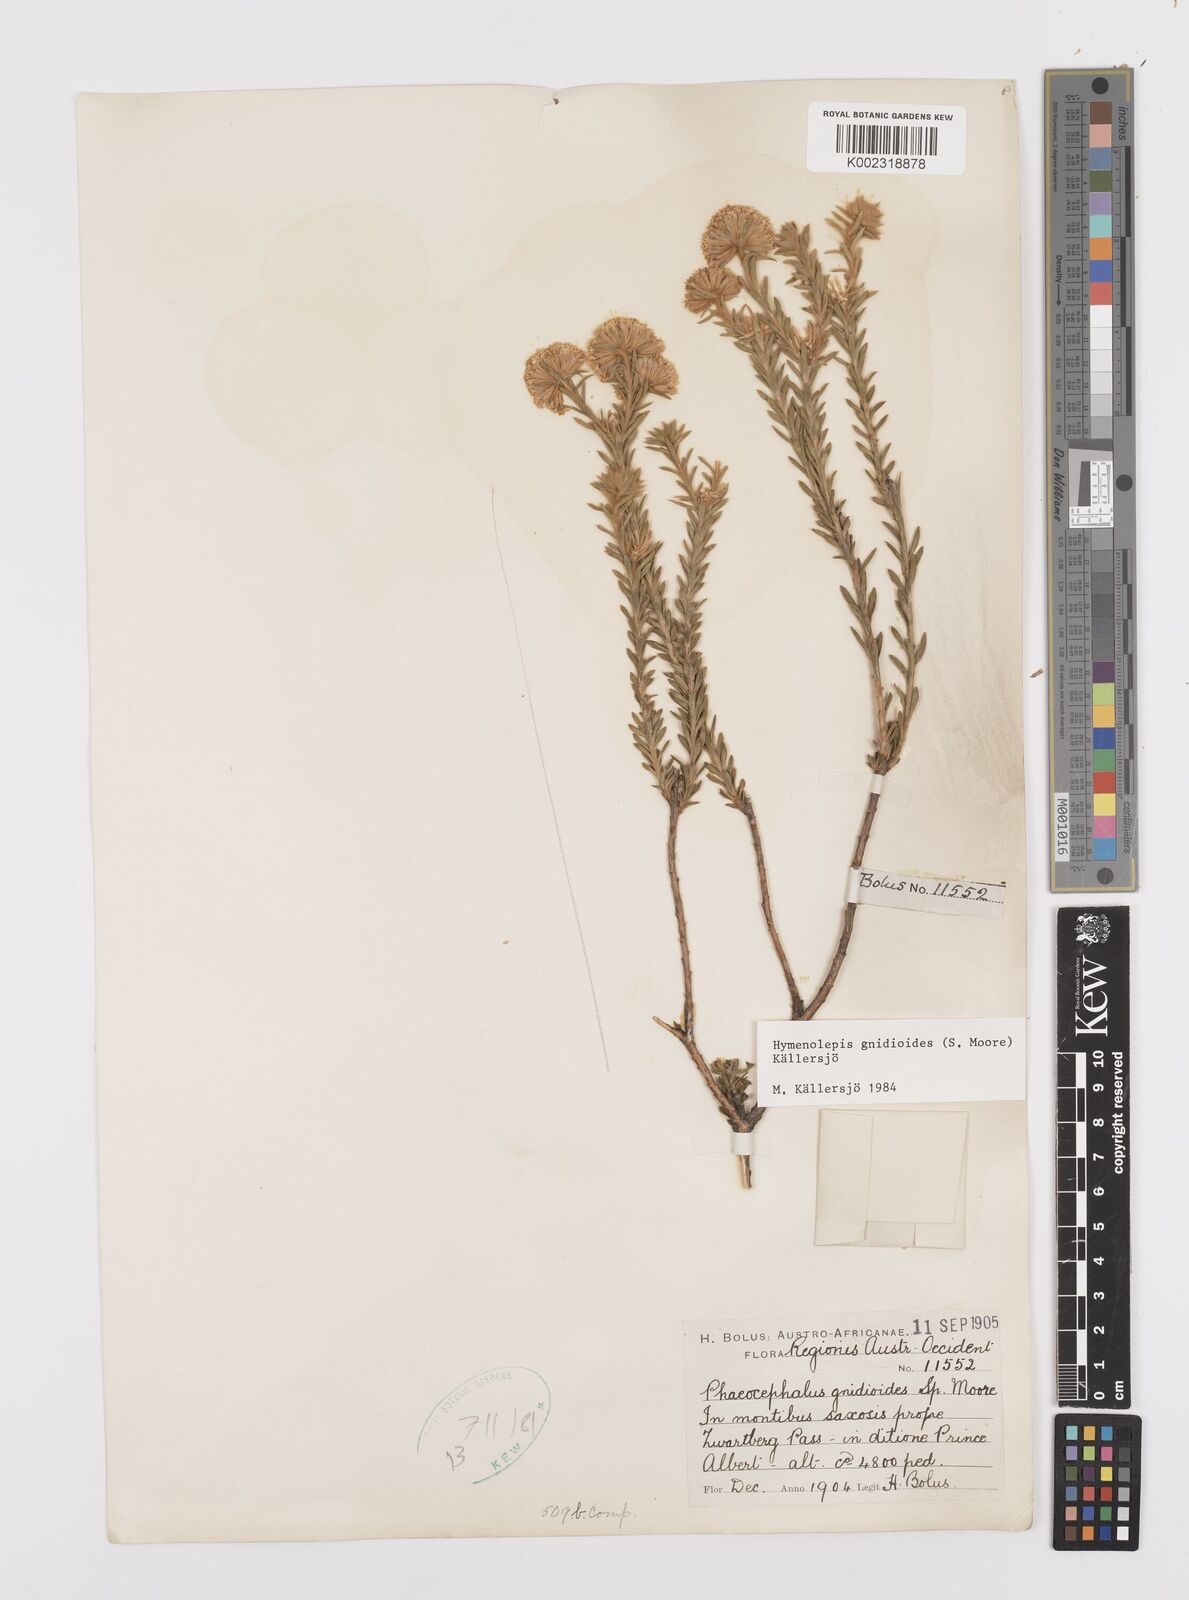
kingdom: Plantae
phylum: Tracheophyta
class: Magnoliopsida
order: Asterales
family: Asteraceae
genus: Hymenolepis
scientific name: Hymenolepis gnidioides
